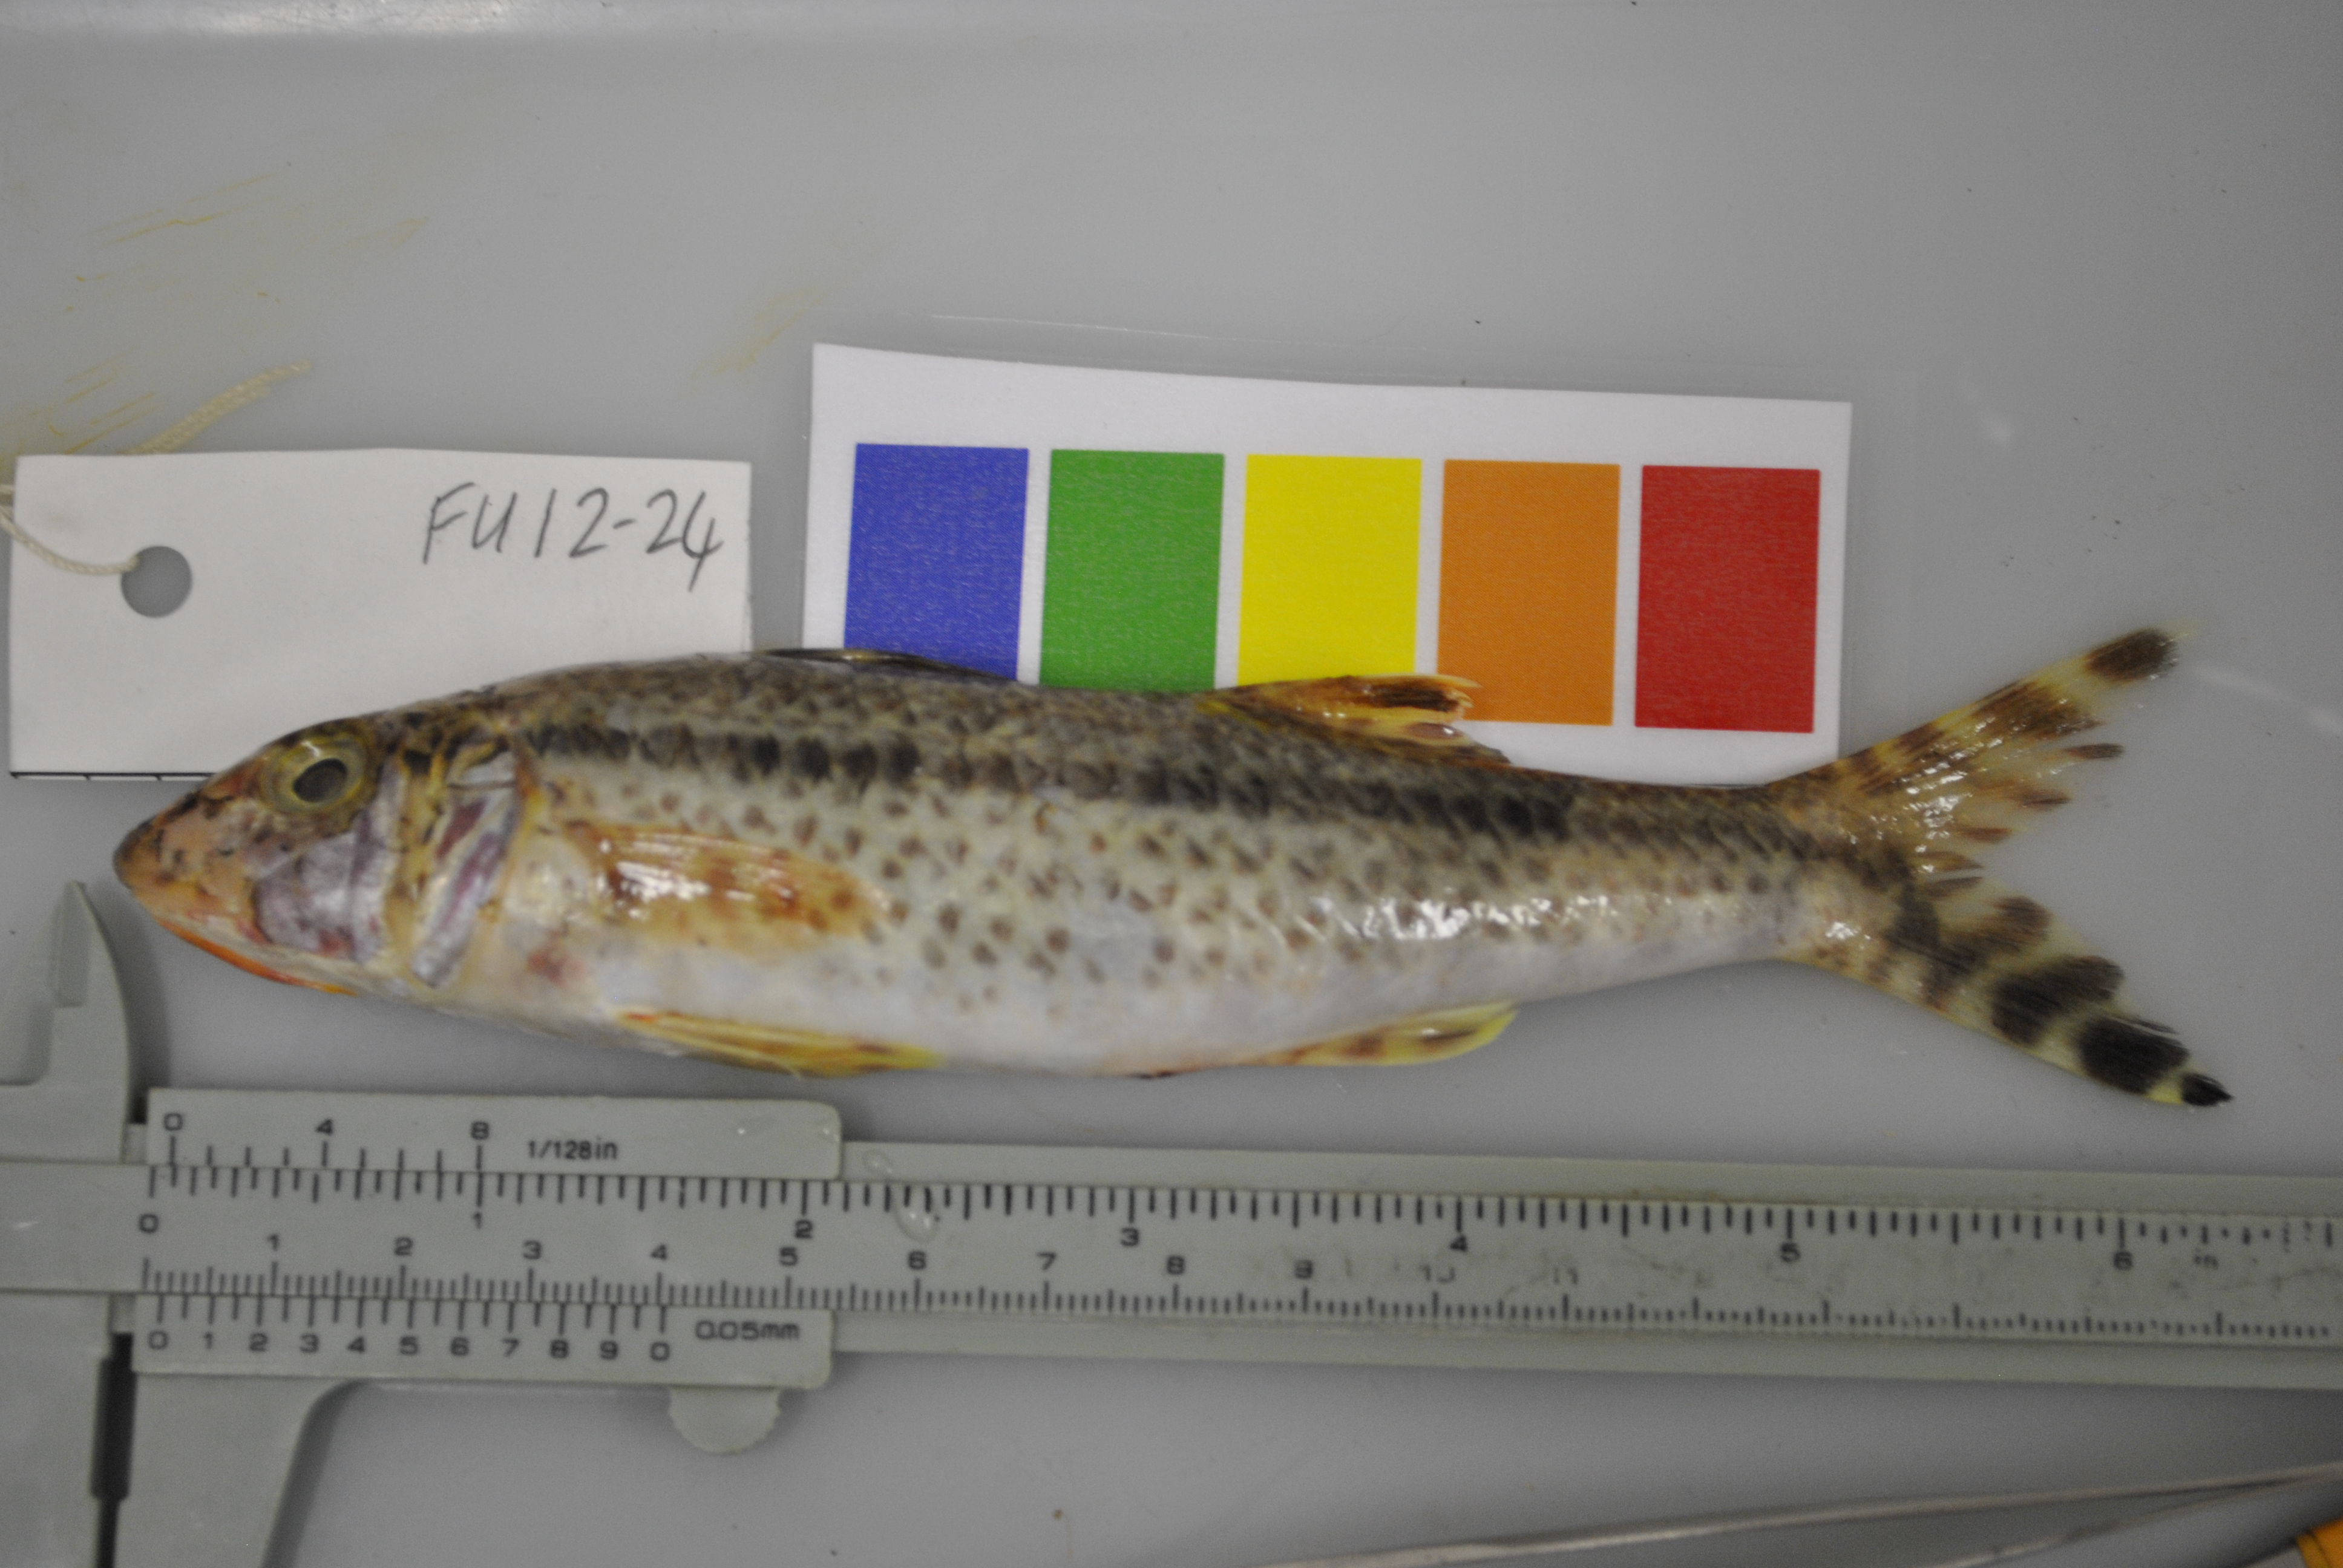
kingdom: Animalia
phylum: Chordata
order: Perciformes
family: Mullidae
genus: Upeneus
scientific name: Upeneus heemstra
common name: Heemstra’s goatfish
